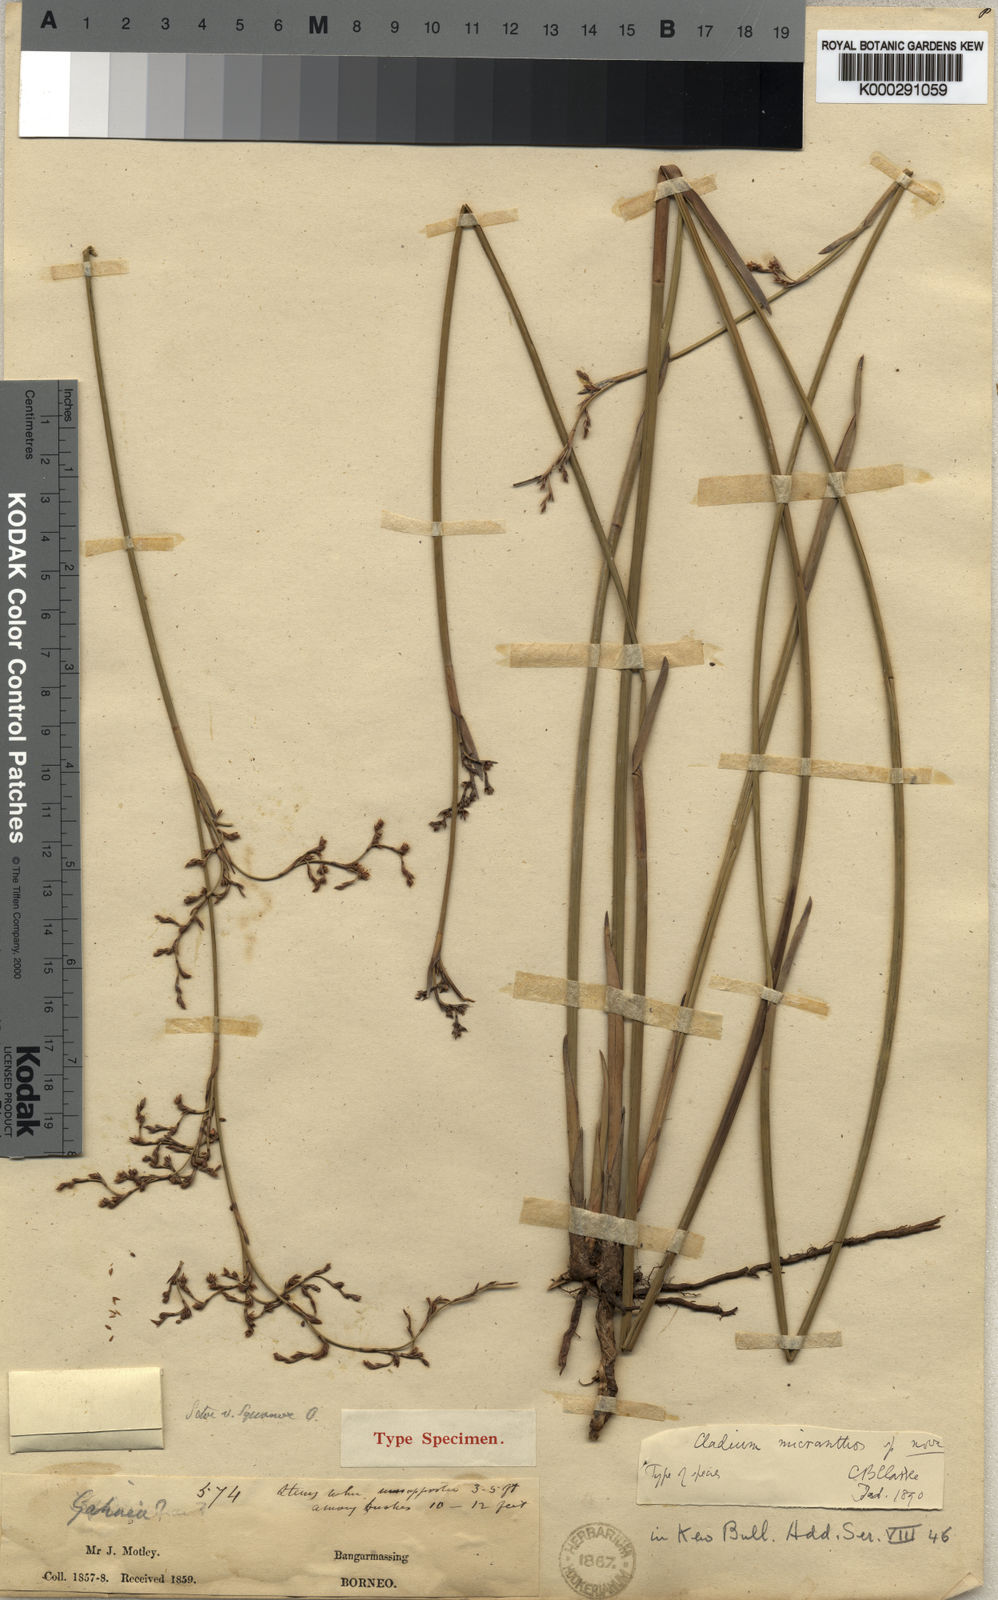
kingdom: Plantae
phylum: Tracheophyta
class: Liliopsida
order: Poales
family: Cyperaceae
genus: Machaerina
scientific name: Machaerina disticha
